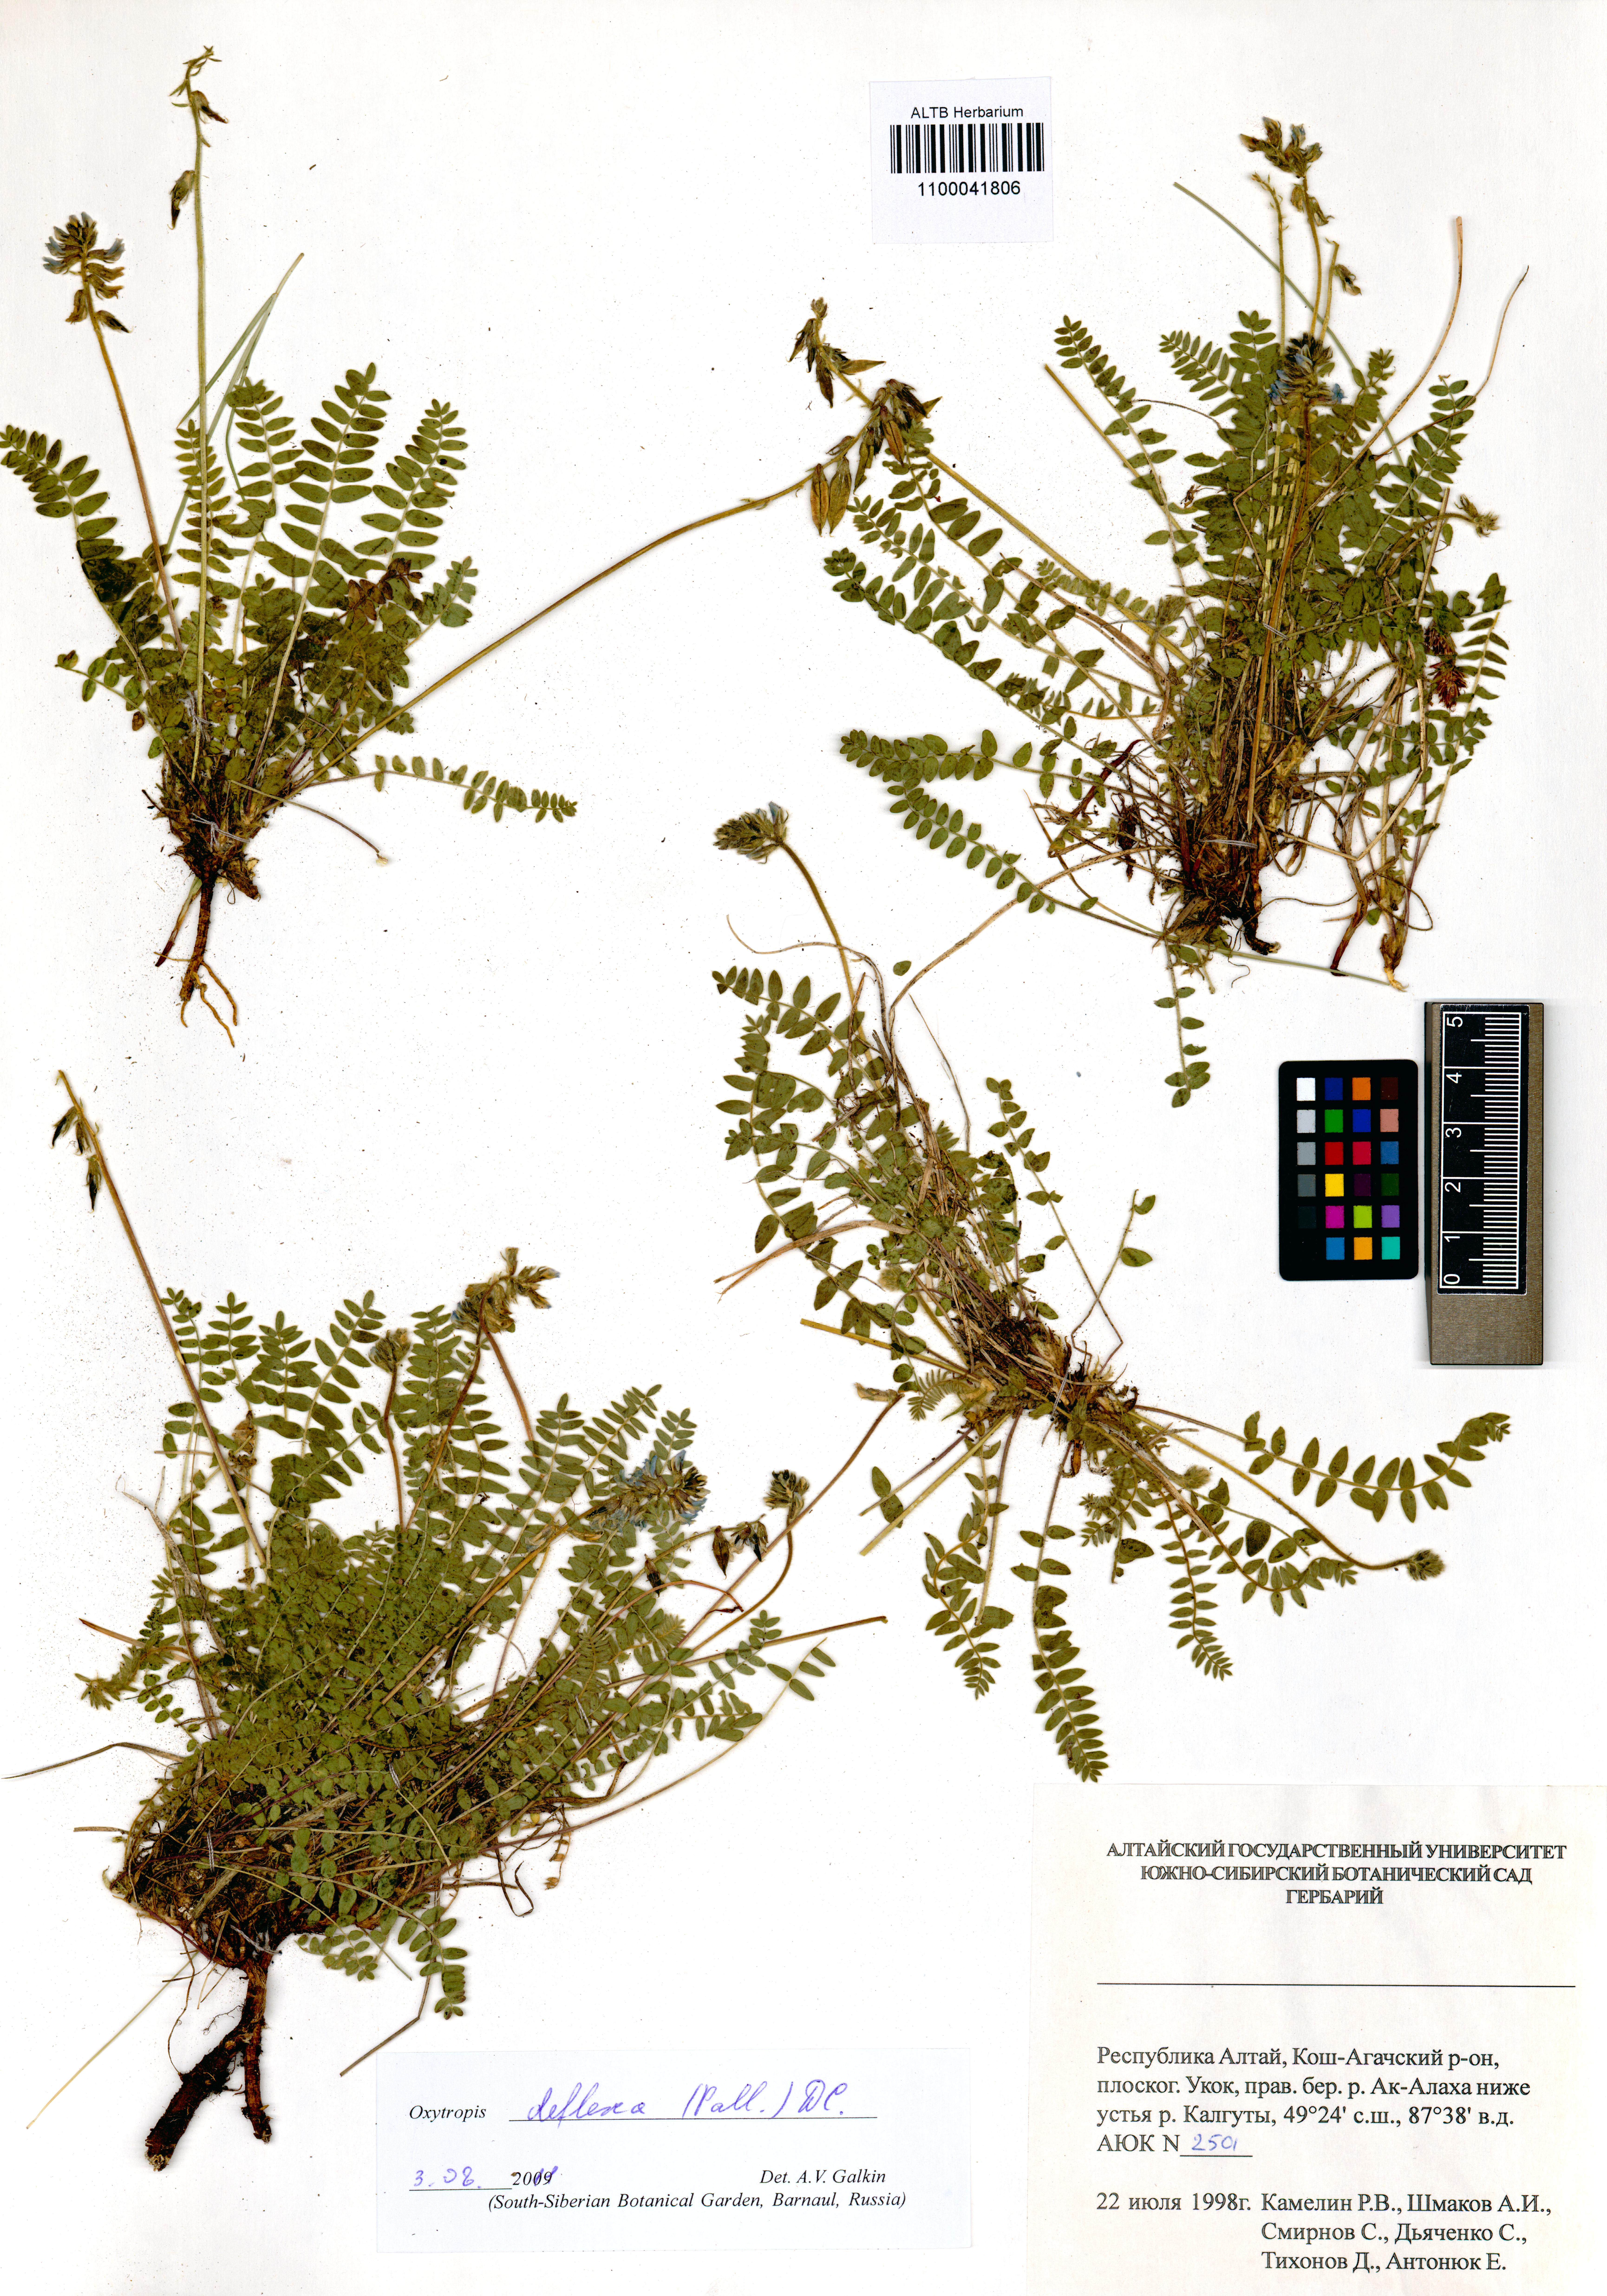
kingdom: Plantae
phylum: Tracheophyta
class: Magnoliopsida
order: Fabales
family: Fabaceae
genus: Oxytropis
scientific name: Oxytropis deflexa
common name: Stemmed oxytrope
